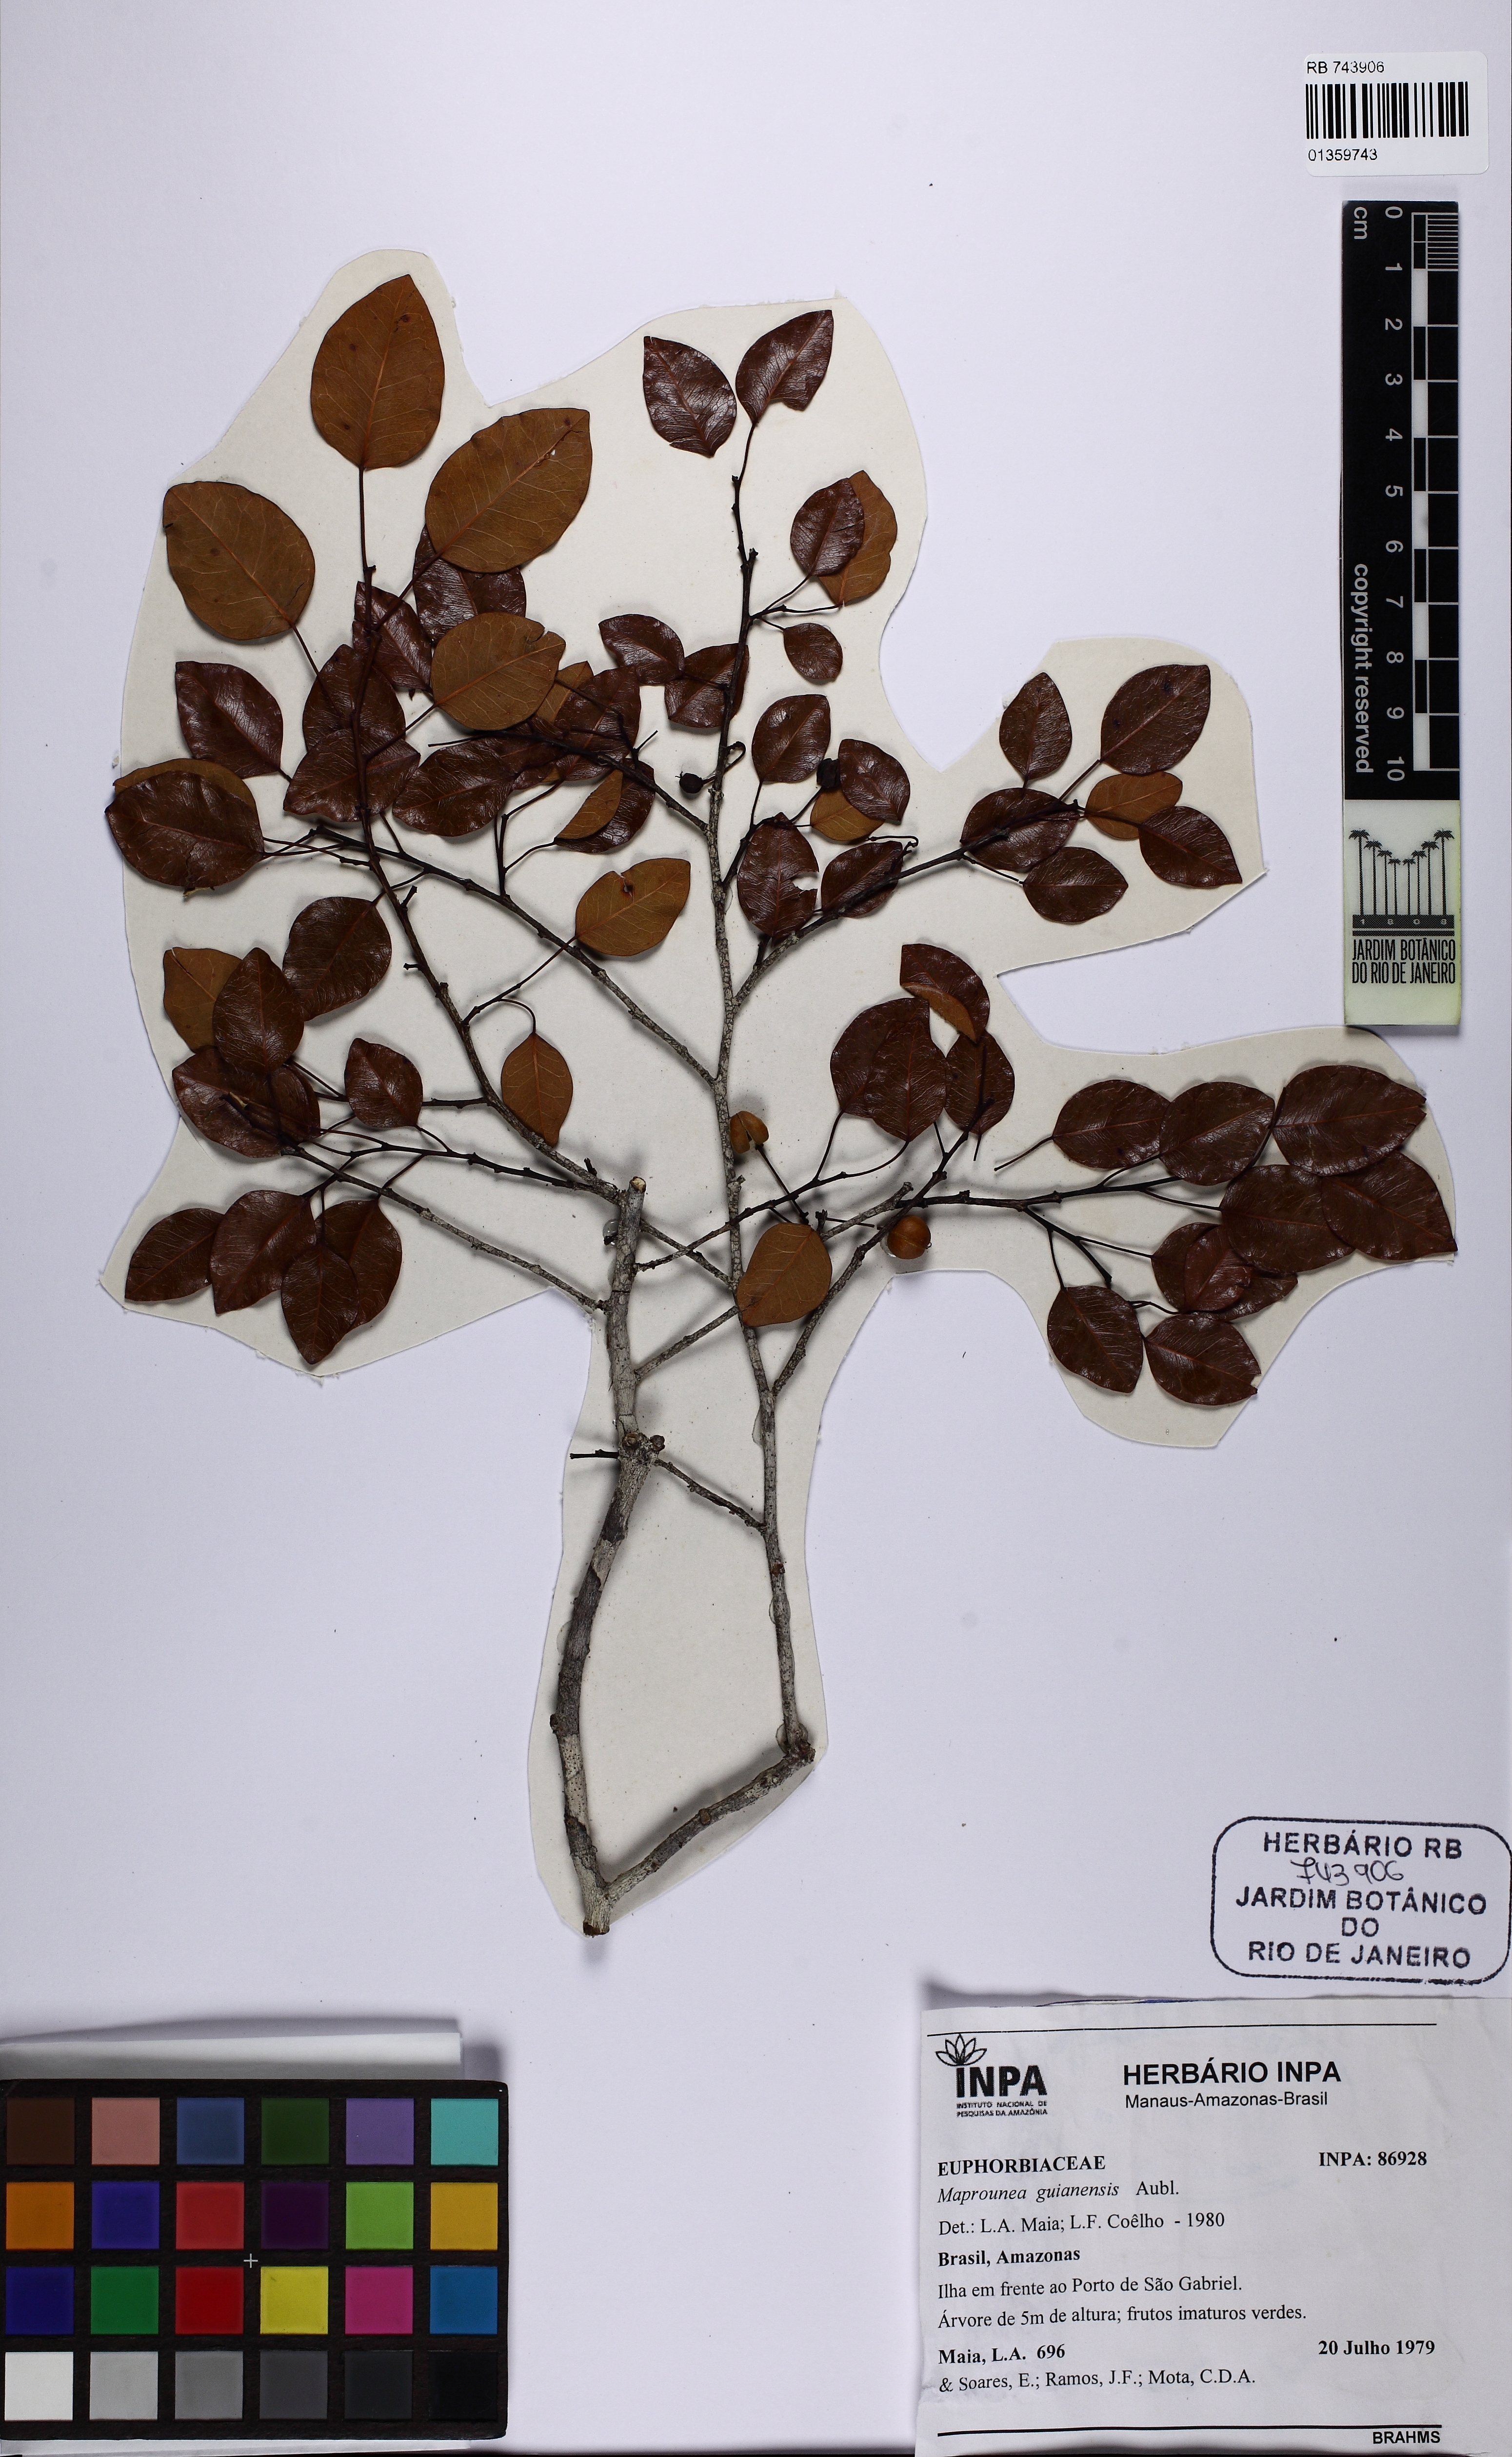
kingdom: Plantae
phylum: Tracheophyta
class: Magnoliopsida
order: Malpighiales
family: Euphorbiaceae
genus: Maprounea
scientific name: Maprounea guianensis
